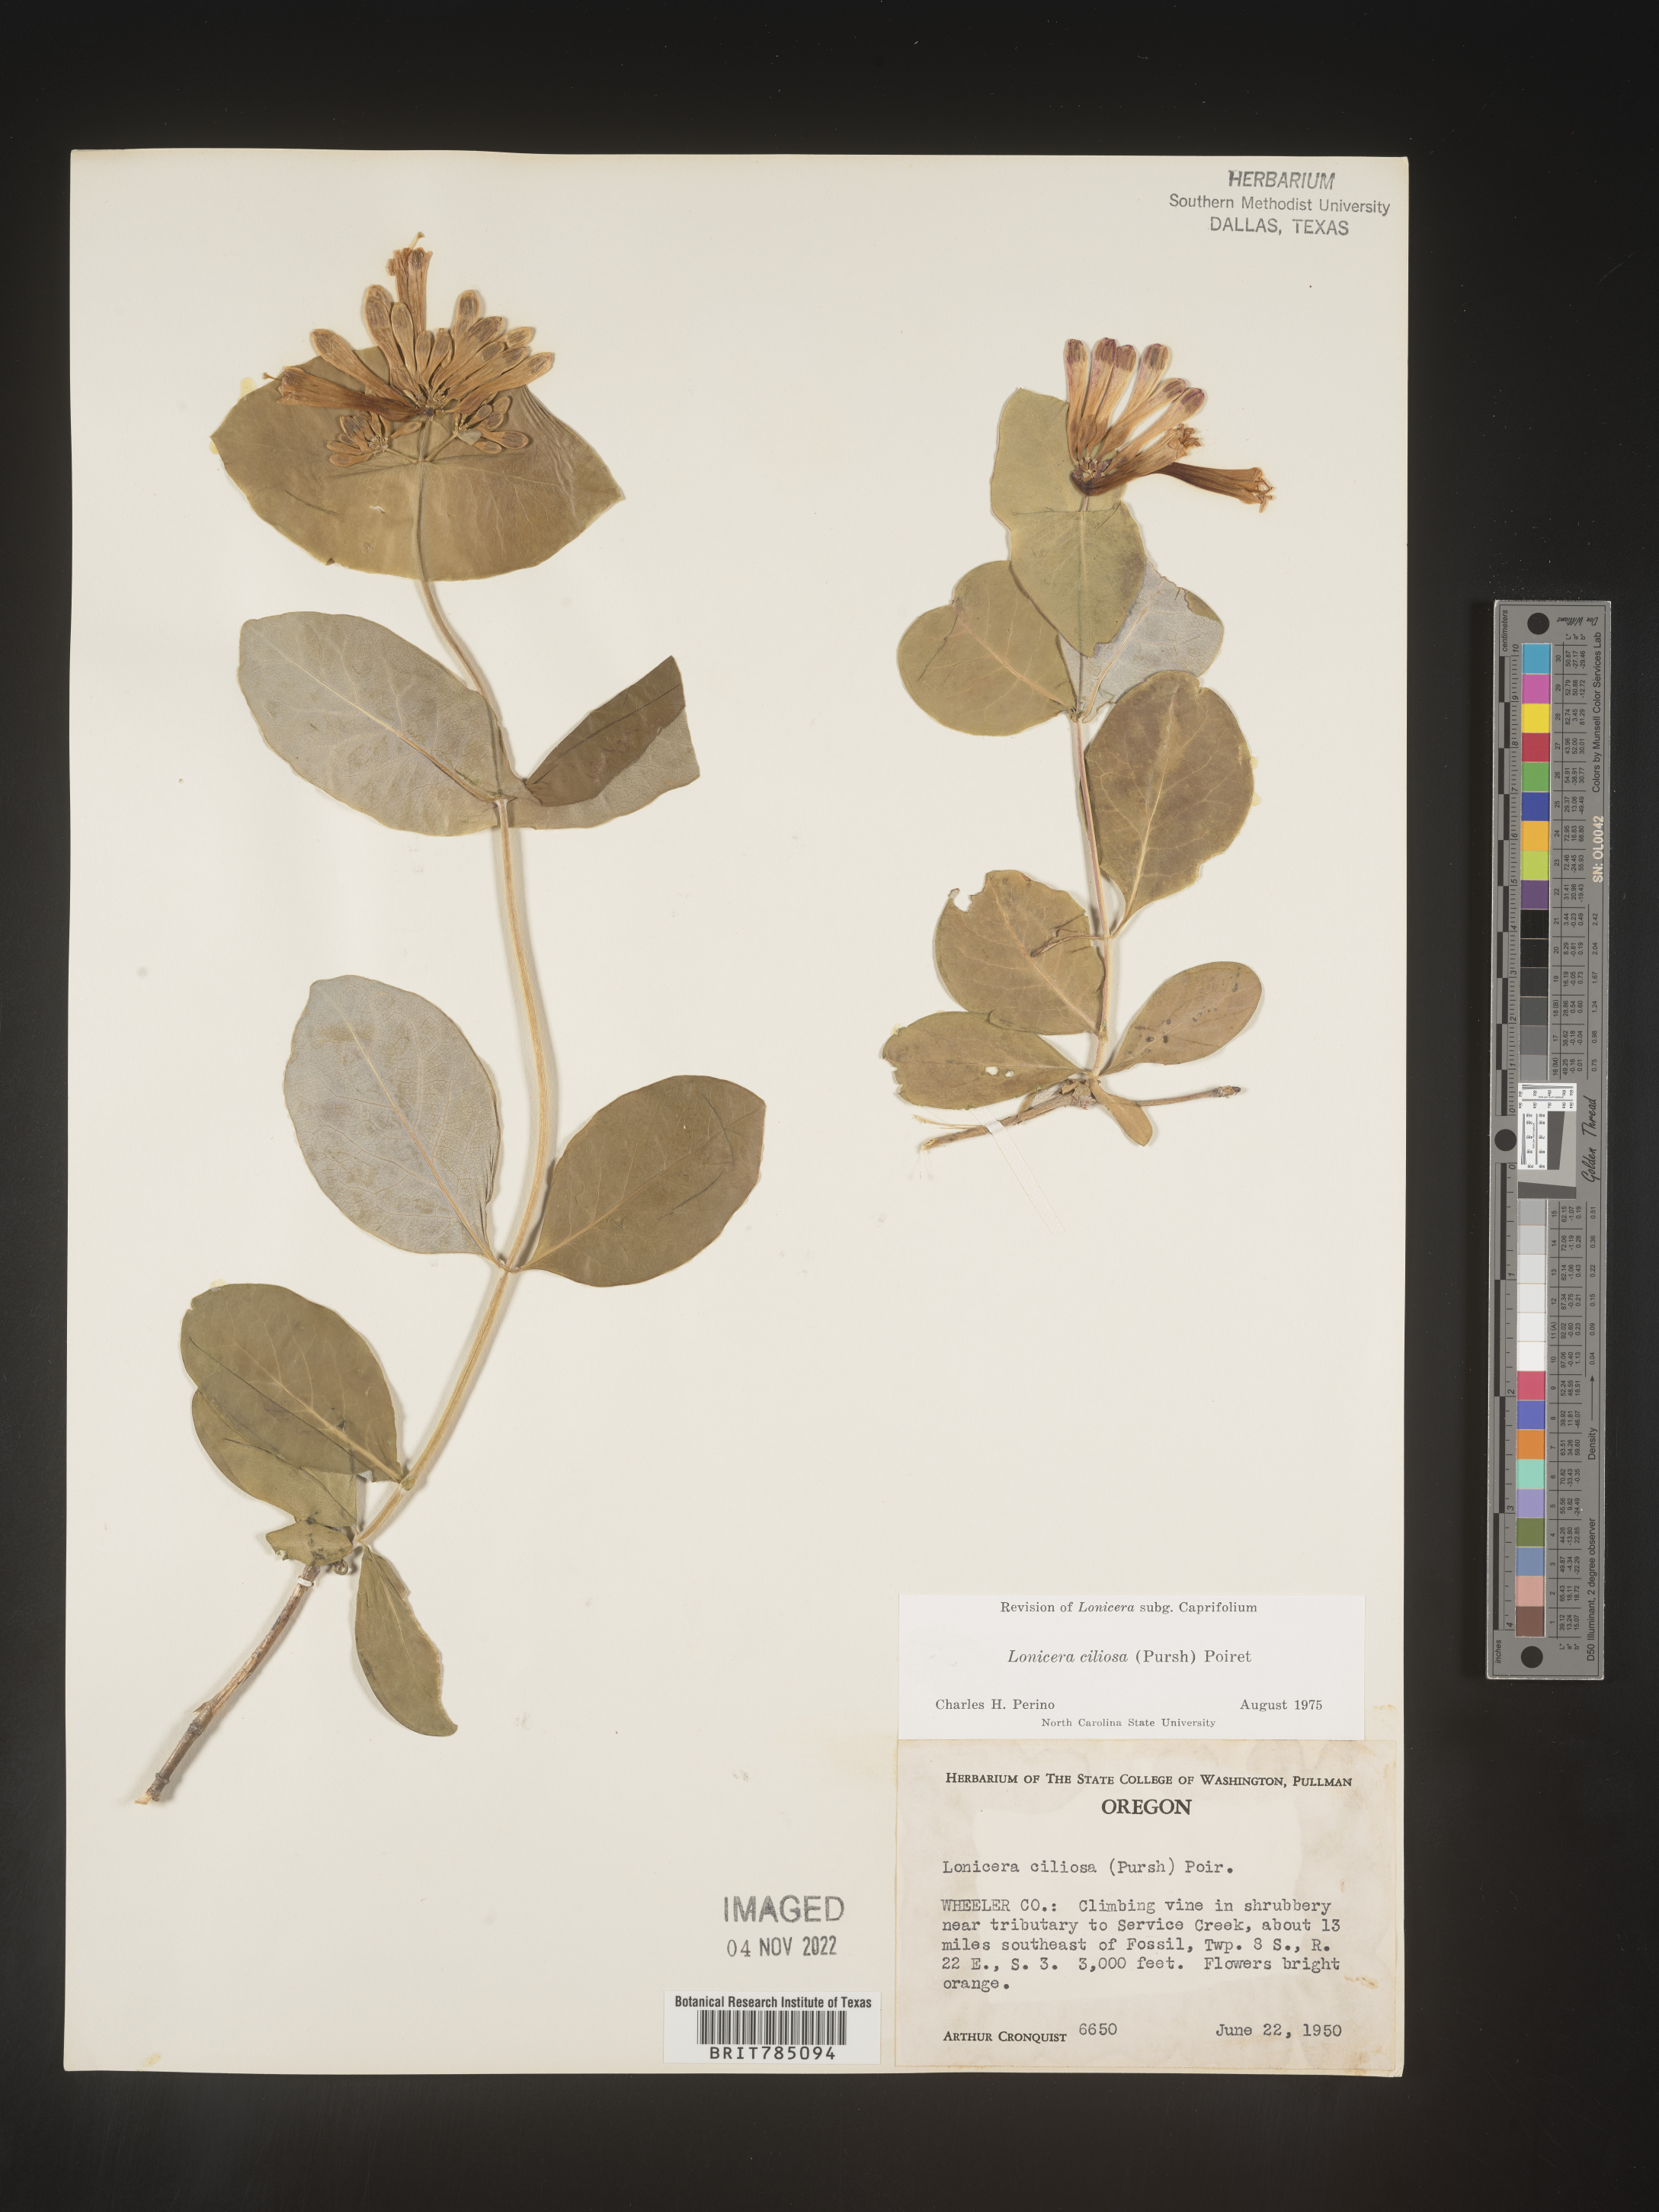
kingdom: Plantae
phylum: Tracheophyta
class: Magnoliopsida
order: Dipsacales
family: Caprifoliaceae
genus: Lonicera
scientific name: Lonicera
